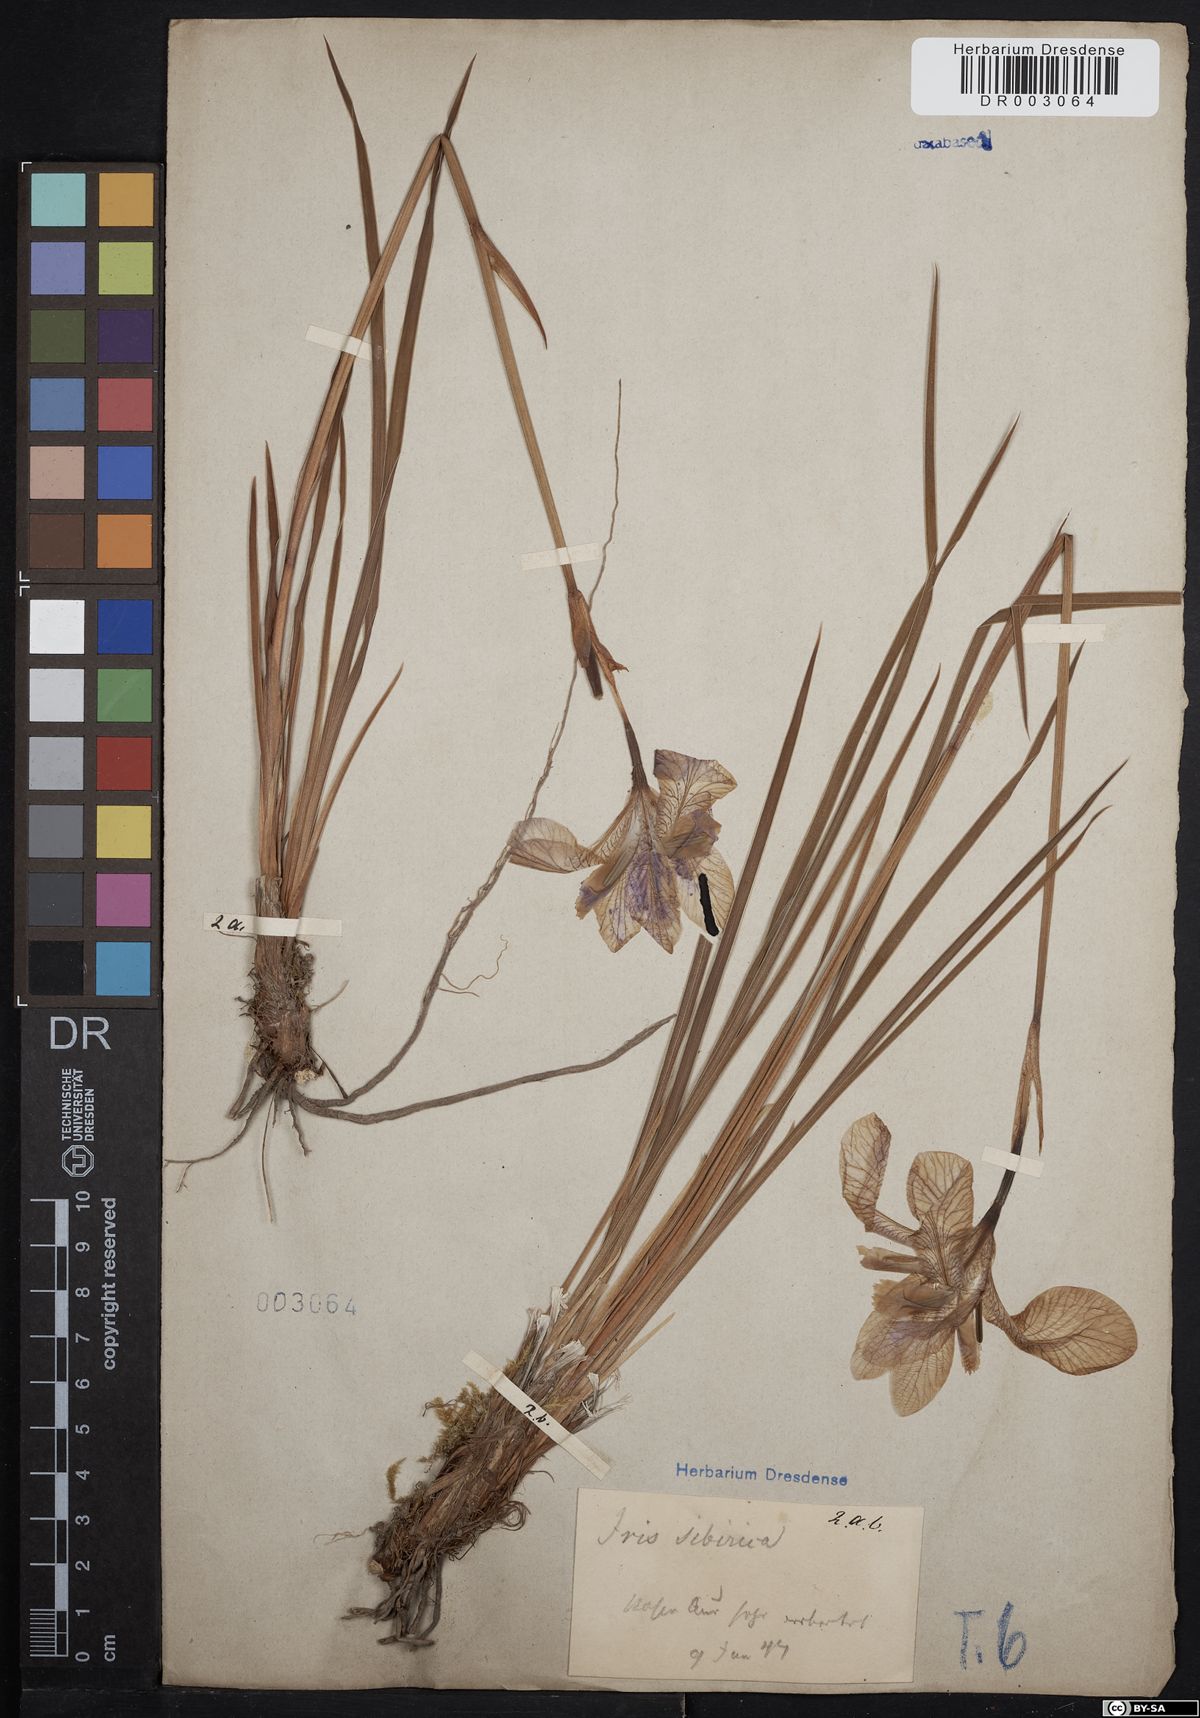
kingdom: Plantae
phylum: Tracheophyta
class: Liliopsida
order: Asparagales
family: Iridaceae
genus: Iris
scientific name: Iris sibirica
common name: Siberian iris
